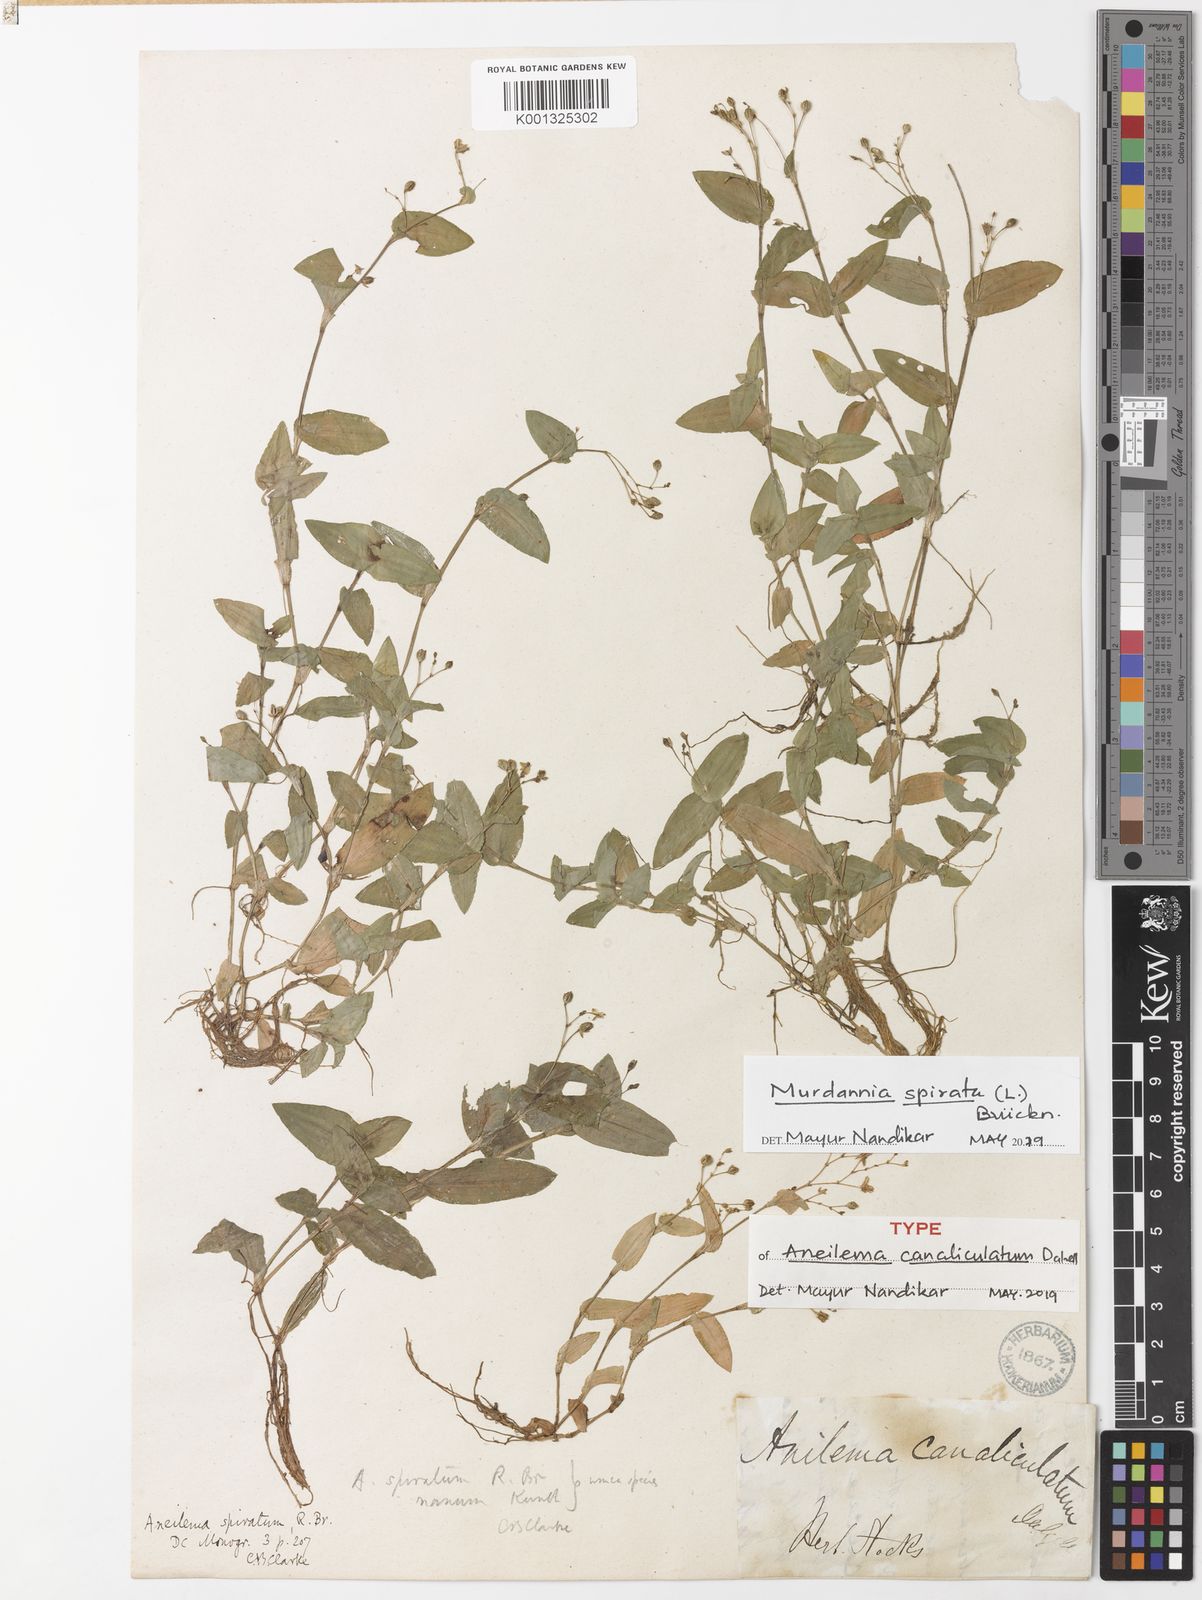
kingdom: Plantae
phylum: Tracheophyta
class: Liliopsida
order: Commelinales
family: Commelinaceae
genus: Murdannia
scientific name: Murdannia
